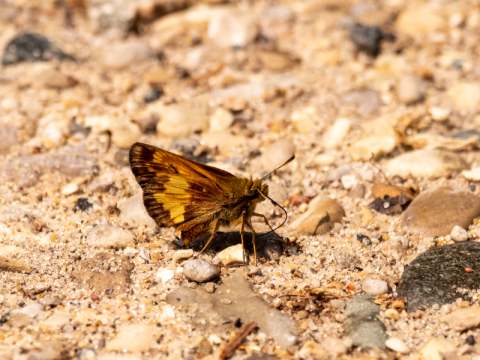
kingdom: Animalia
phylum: Arthropoda
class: Insecta
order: Lepidoptera
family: Hesperiidae
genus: Lon
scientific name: Lon hobomok
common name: Hobomok Skipper
